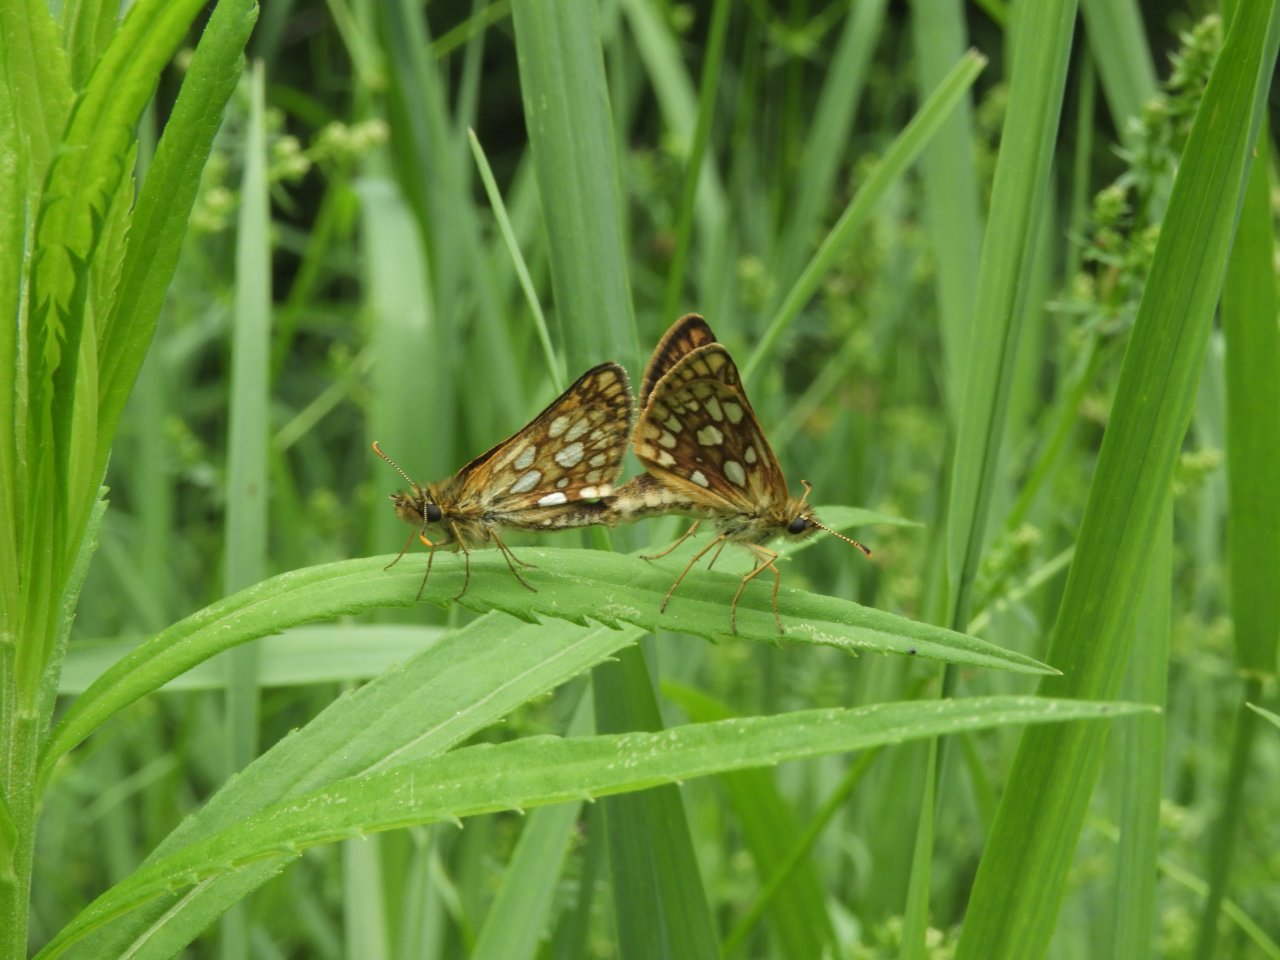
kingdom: Animalia
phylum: Arthropoda
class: Insecta
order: Lepidoptera
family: Hesperiidae
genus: Carterocephalus
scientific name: Carterocephalus palaemon
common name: Chequered Skipper
